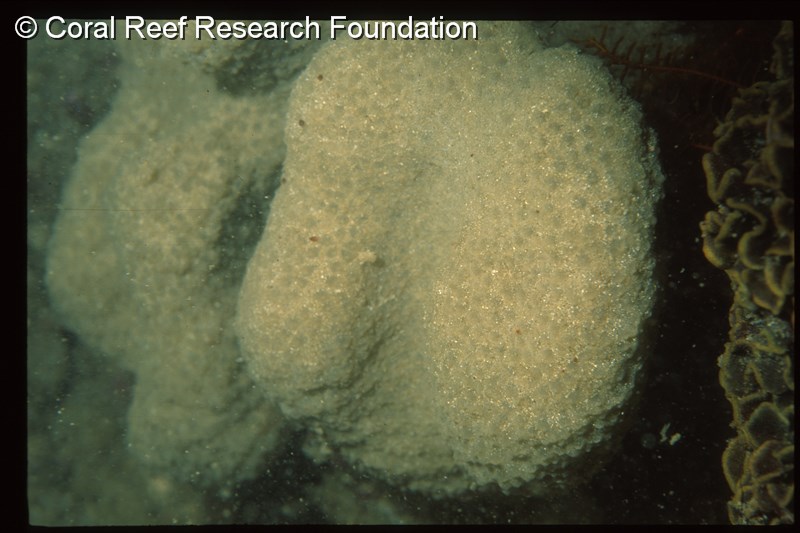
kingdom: Animalia
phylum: Chordata
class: Ascidiacea
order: Aplousobranchia
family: Polyclinidae
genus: Polyclinum
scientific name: Polyclinum isipingense
